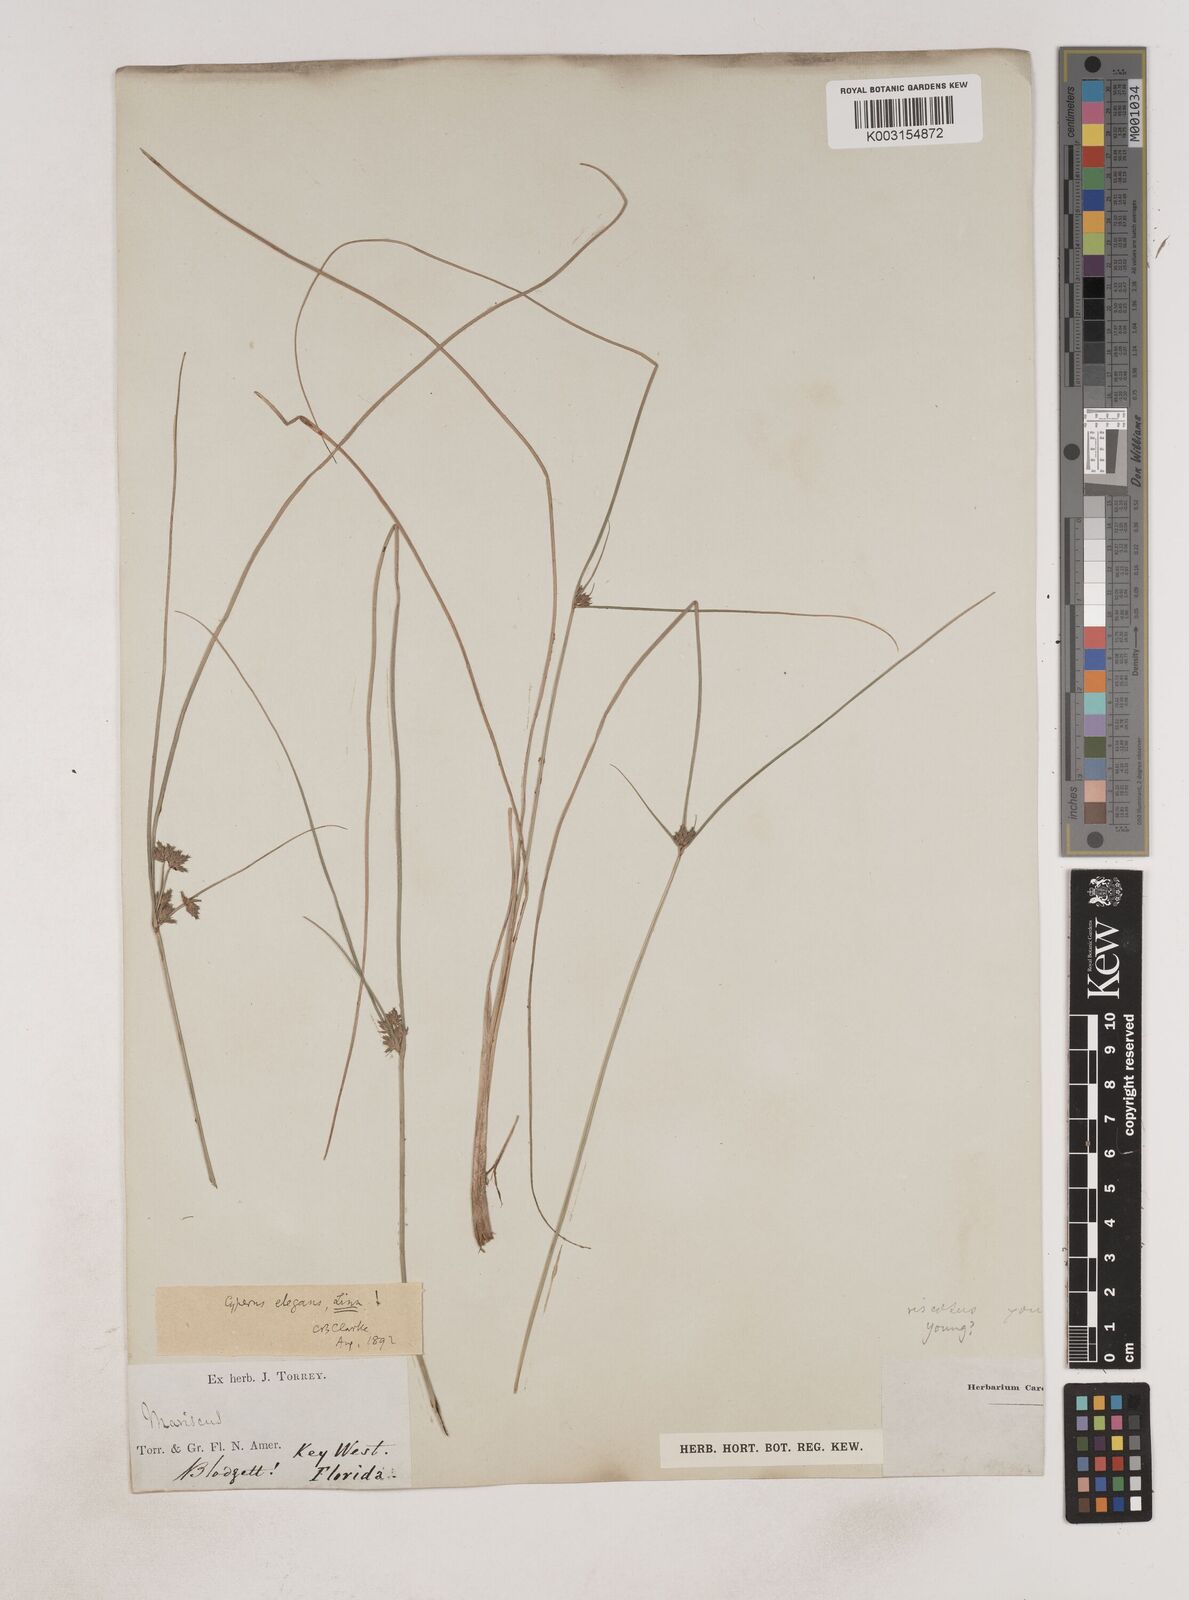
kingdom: Plantae
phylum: Tracheophyta
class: Liliopsida
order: Poales
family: Cyperaceae
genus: Cyperus
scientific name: Cyperus elegans
